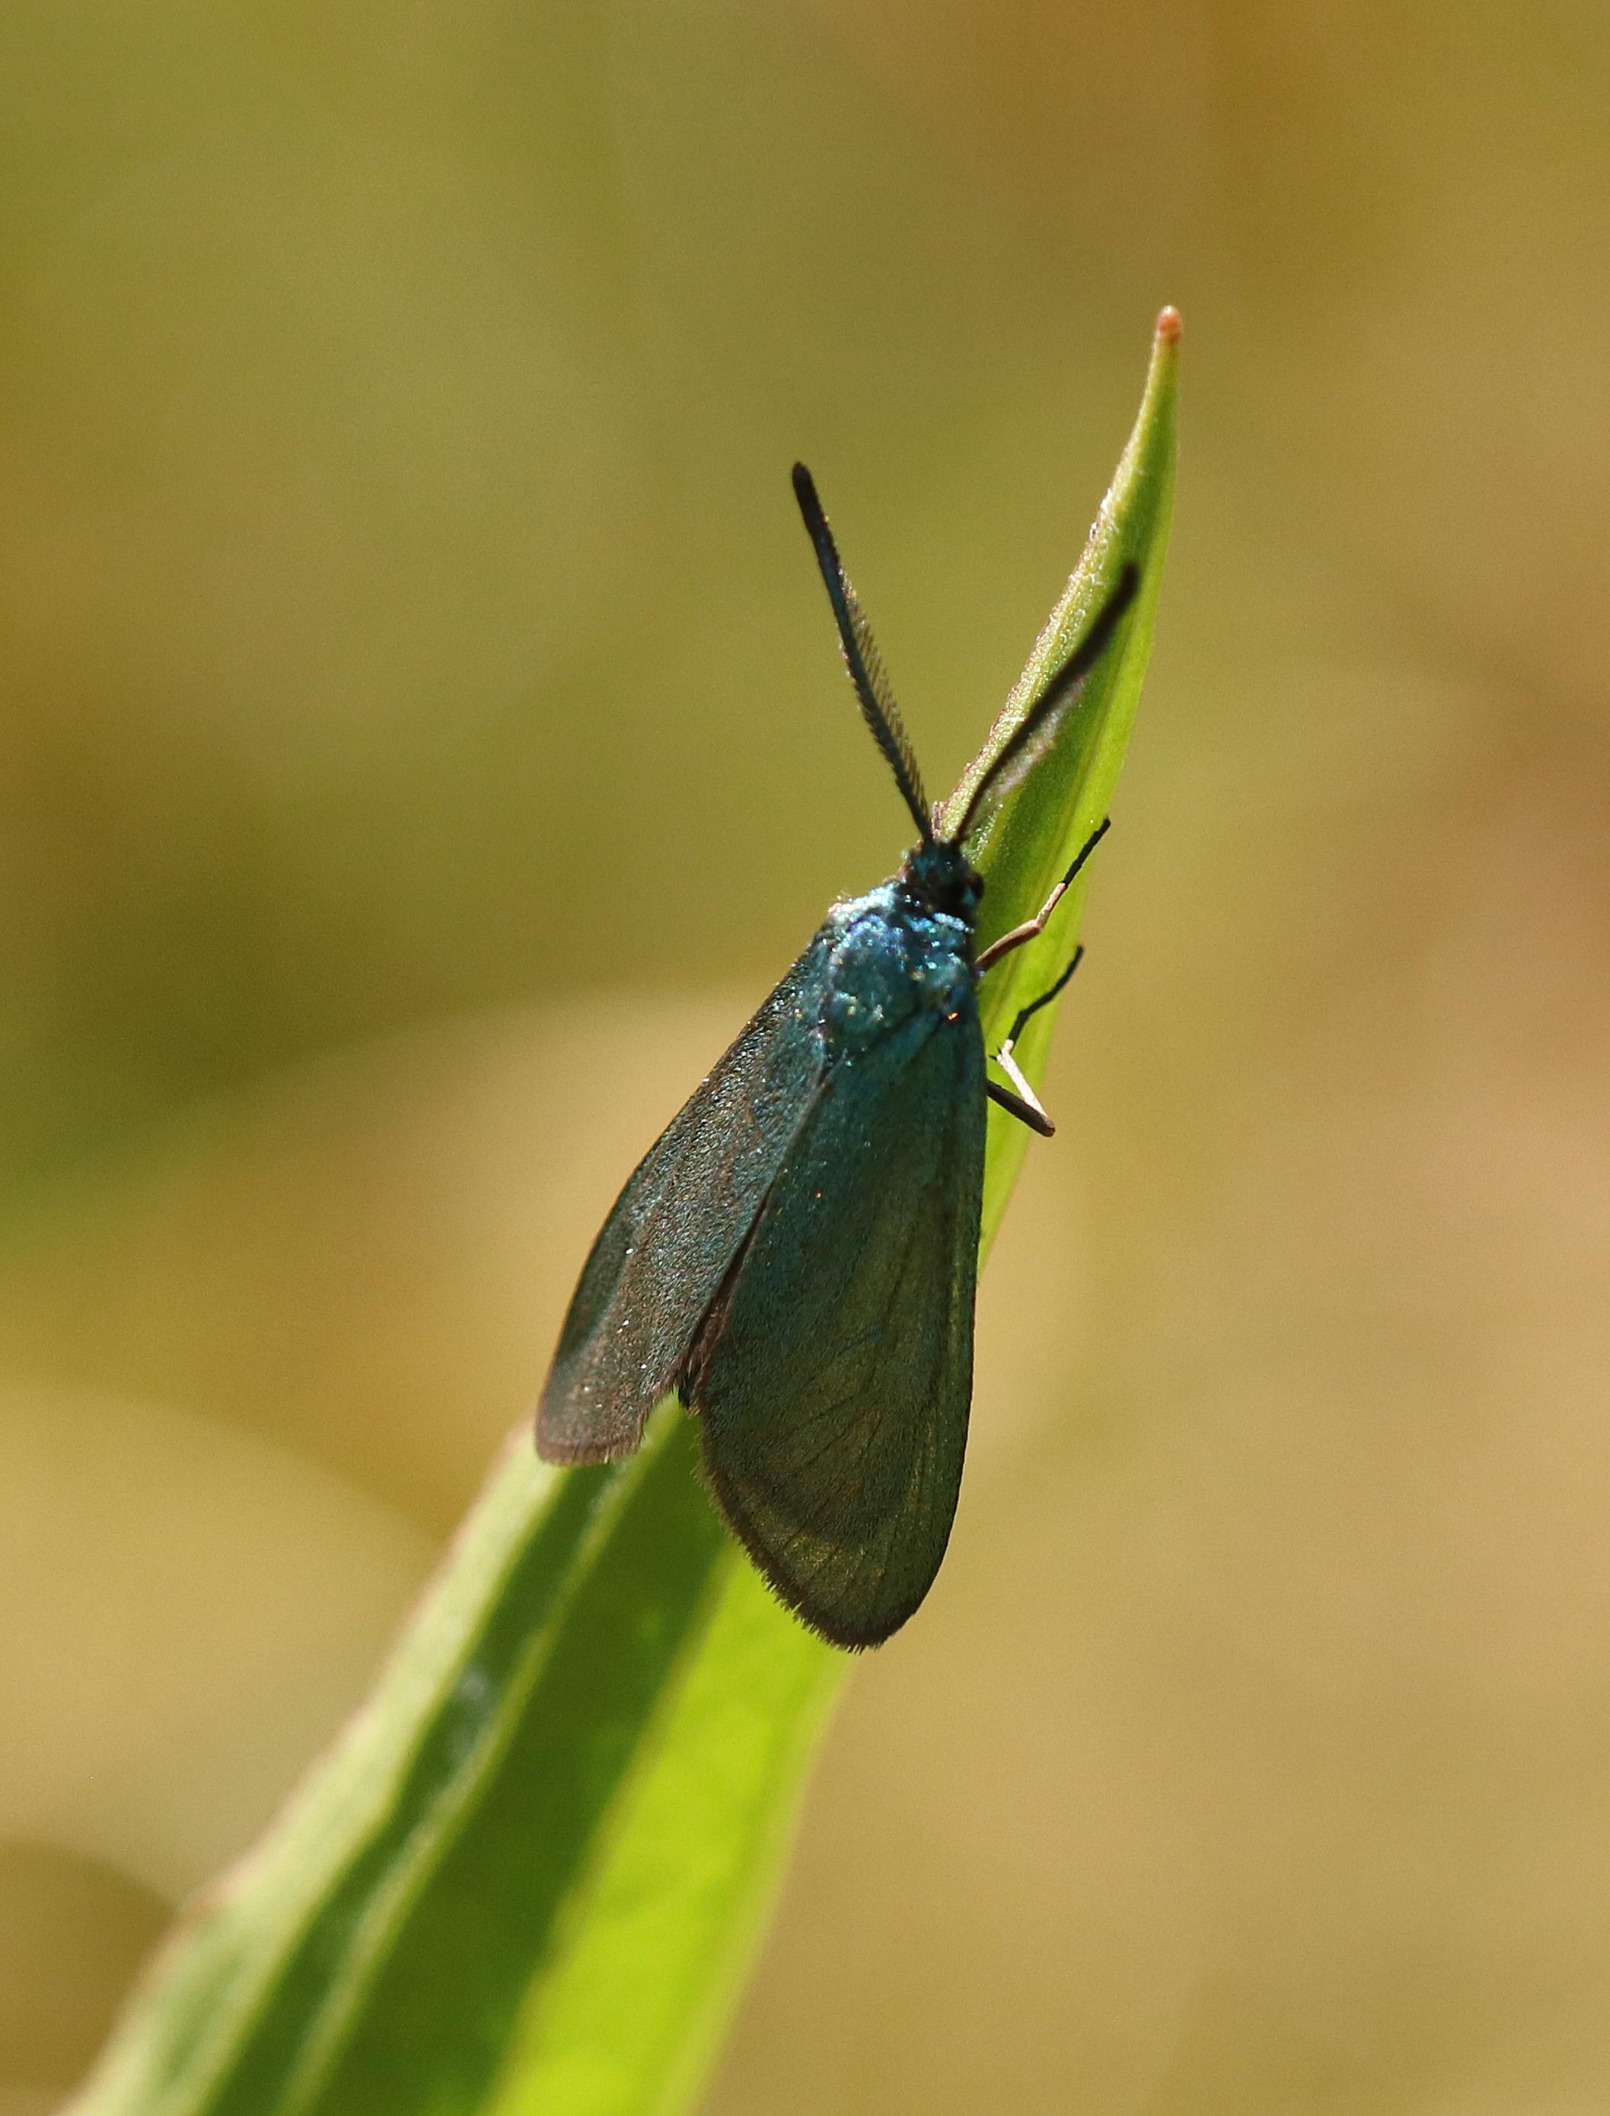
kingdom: Animalia
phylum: Arthropoda
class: Insecta
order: Lepidoptera
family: Zygaenidae
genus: Adscita
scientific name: Adscita statices
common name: Metalvinge
